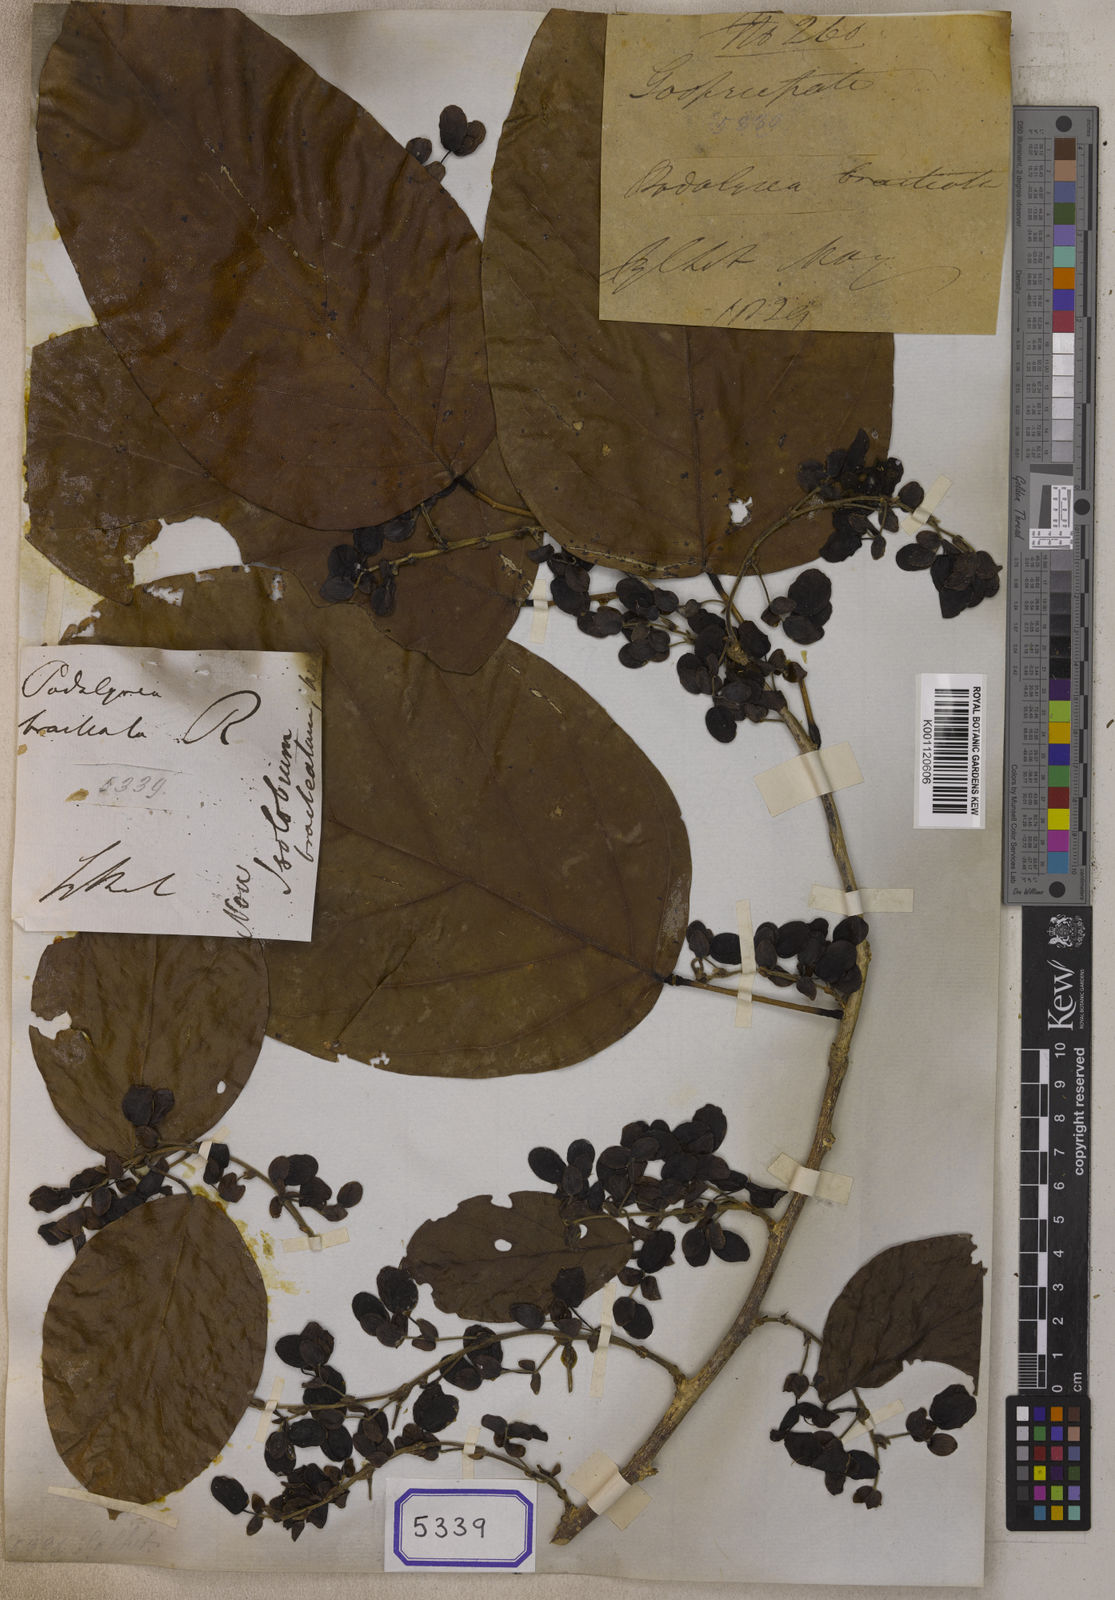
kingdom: Plantae
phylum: Tracheophyta
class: Magnoliopsida
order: Fabales
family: Fabaceae
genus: Dalhousiea
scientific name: Dalhousiea
